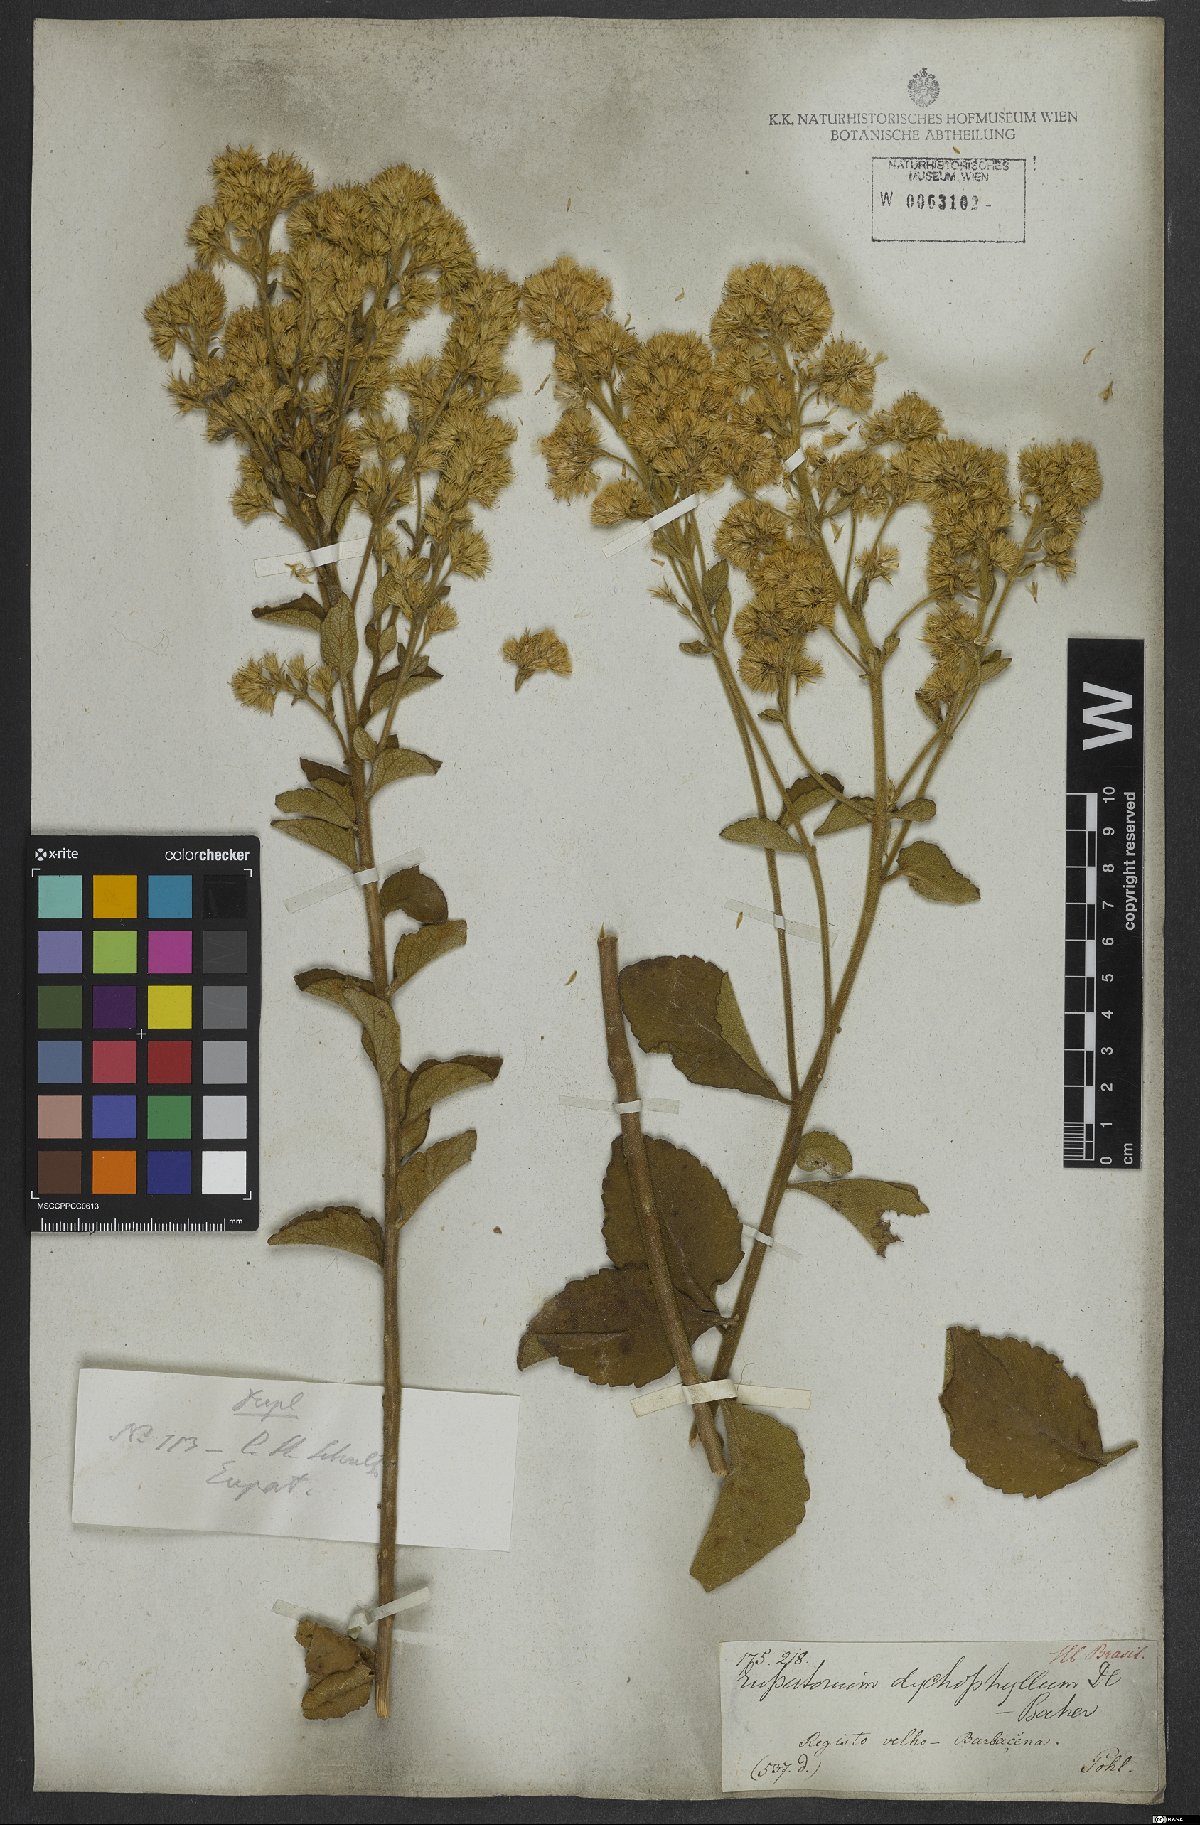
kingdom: Plantae
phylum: Tracheophyta
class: Magnoliopsida
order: Asterales
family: Asteraceae
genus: Stomatanthes
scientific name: Stomatanthes dictyophyllus
